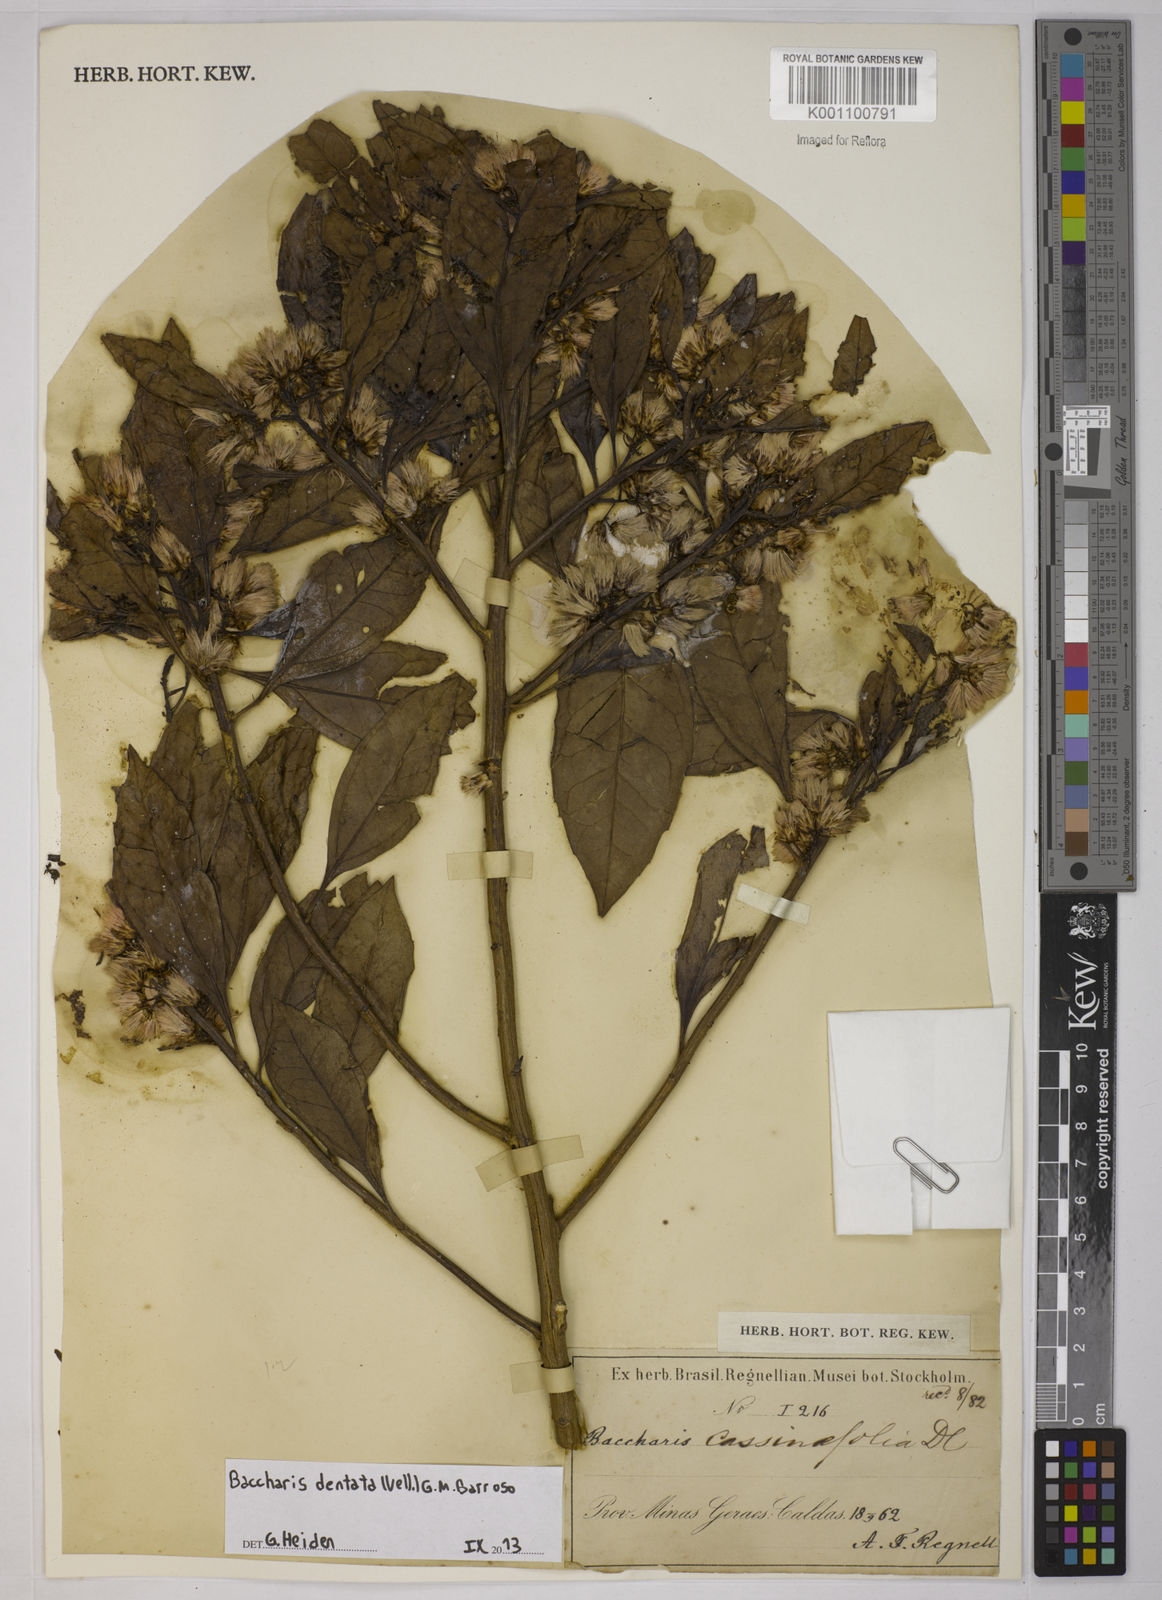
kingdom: Plantae
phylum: Tracheophyta
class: Magnoliopsida
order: Asterales
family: Asteraceae
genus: Baccharis
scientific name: Baccharis
